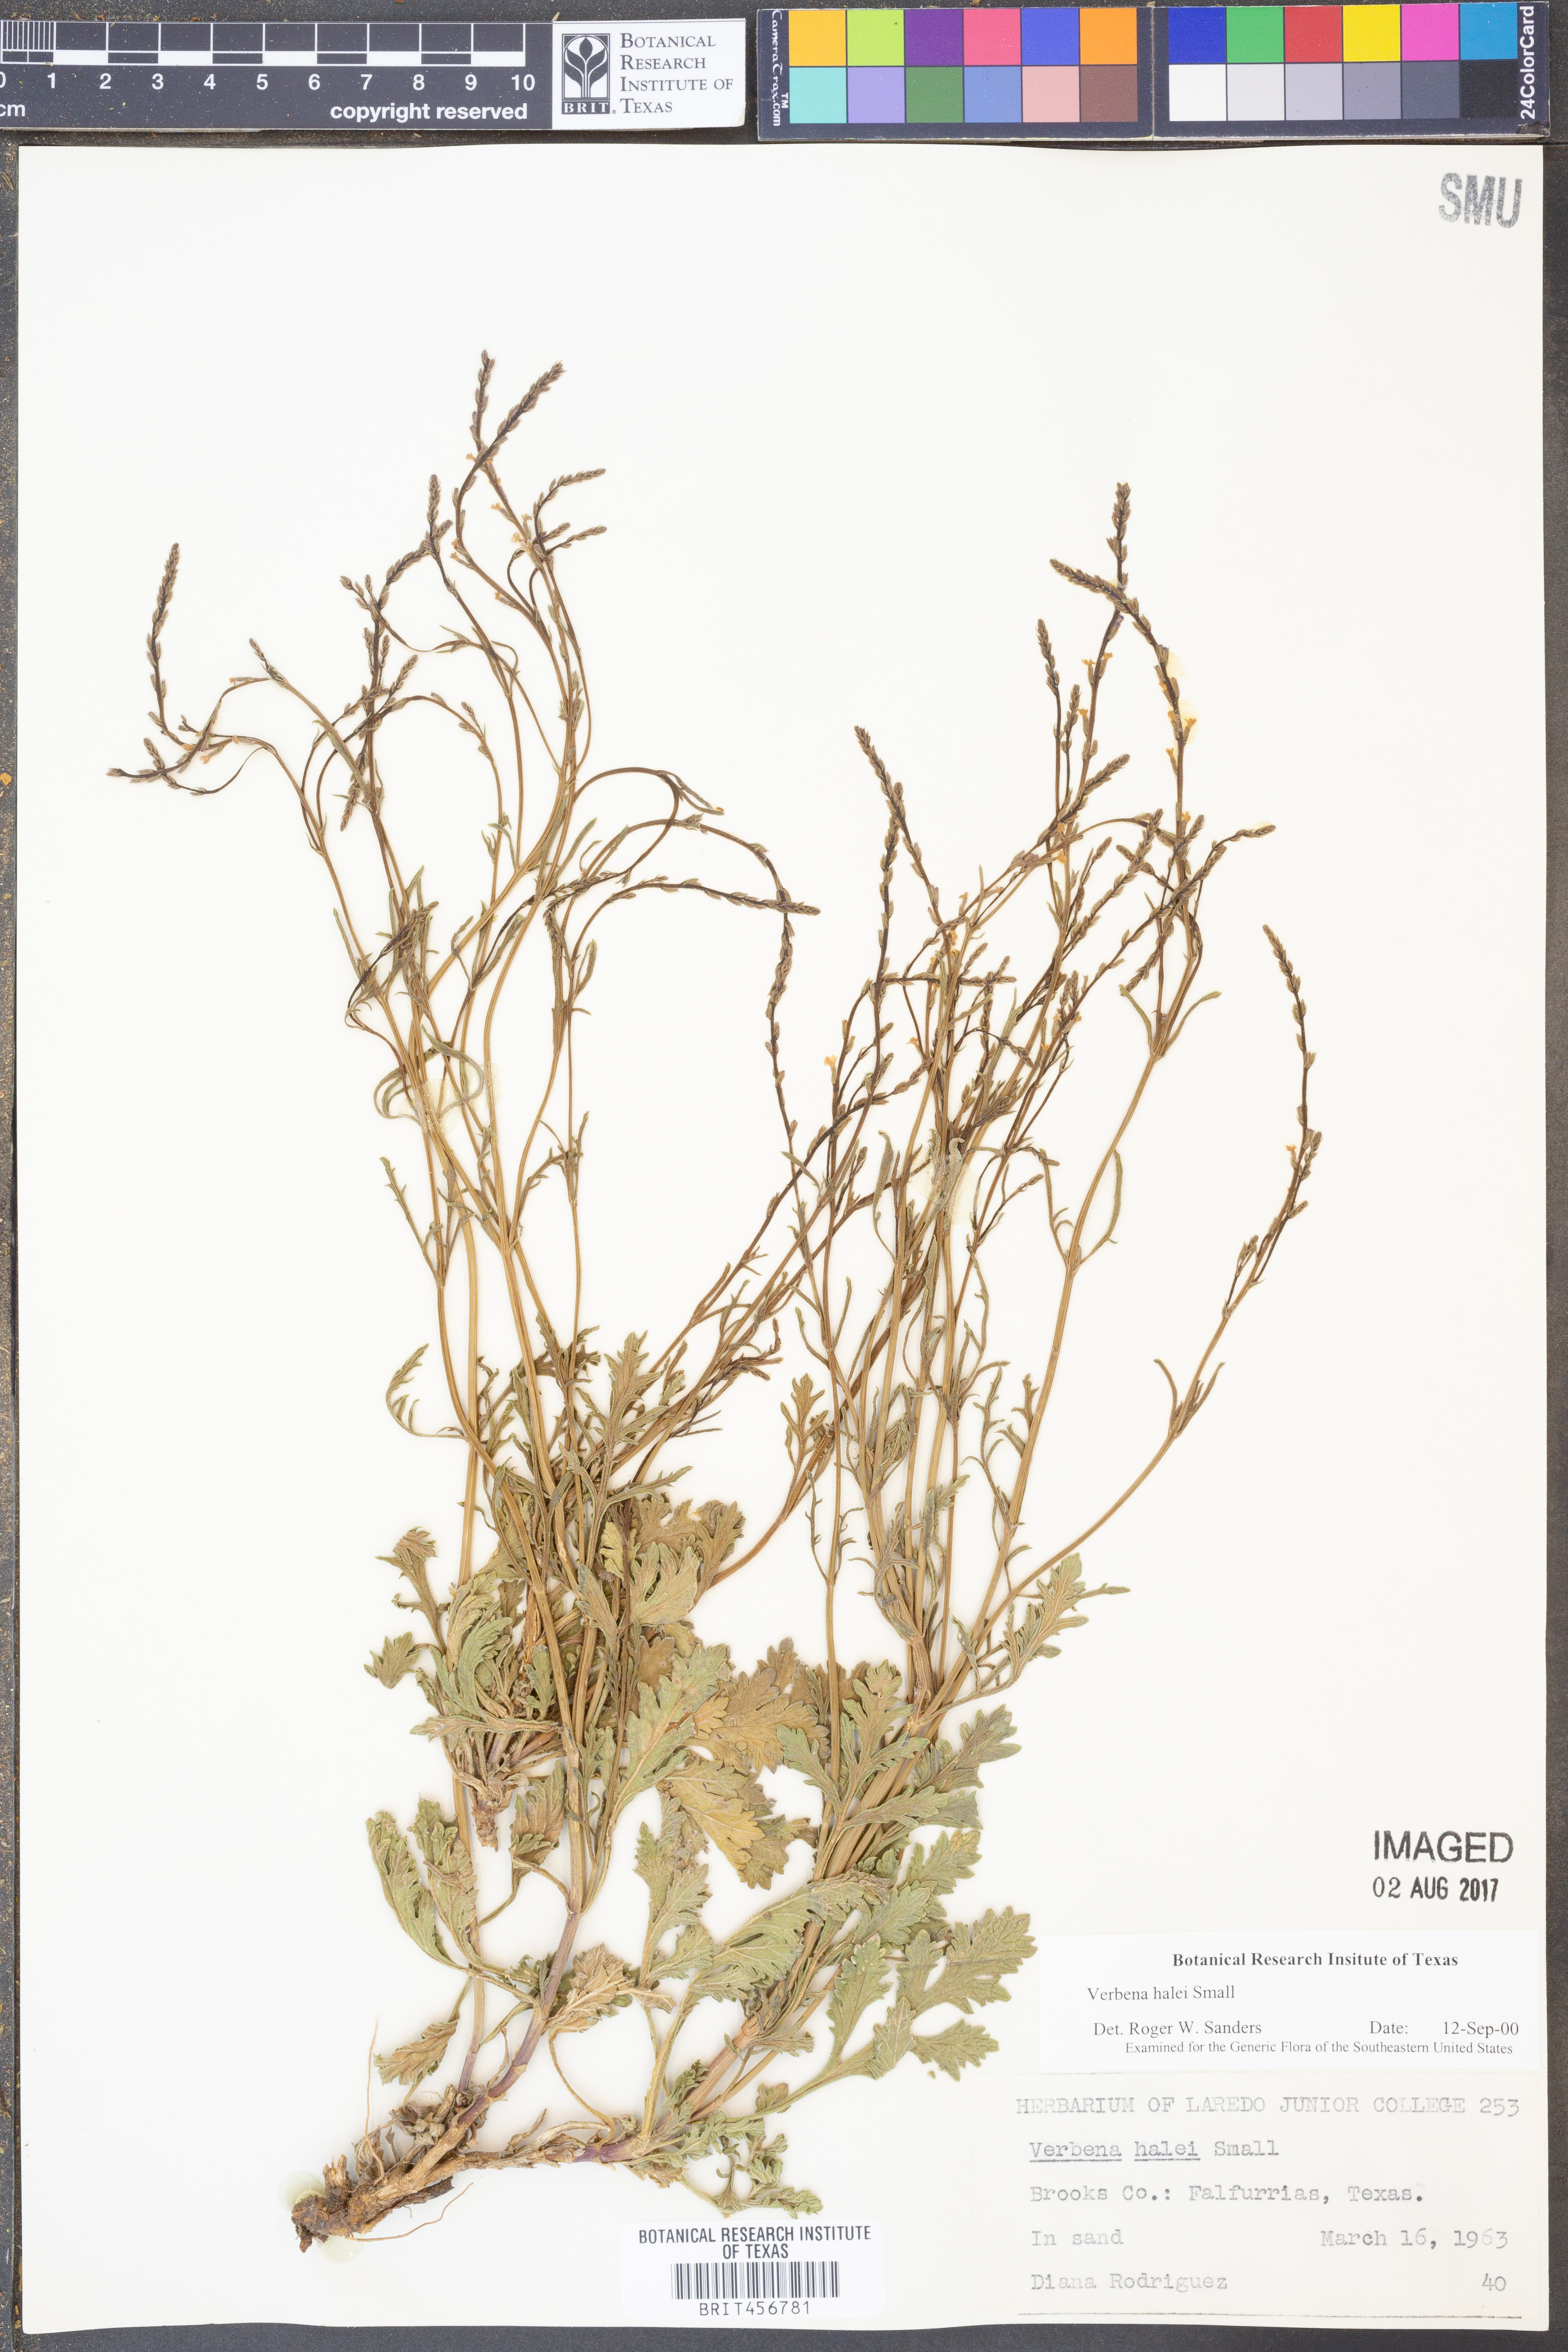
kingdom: Plantae
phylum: Tracheophyta
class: Magnoliopsida
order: Lamiales
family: Verbenaceae
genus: Verbena
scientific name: Verbena halei
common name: Texas vervain
